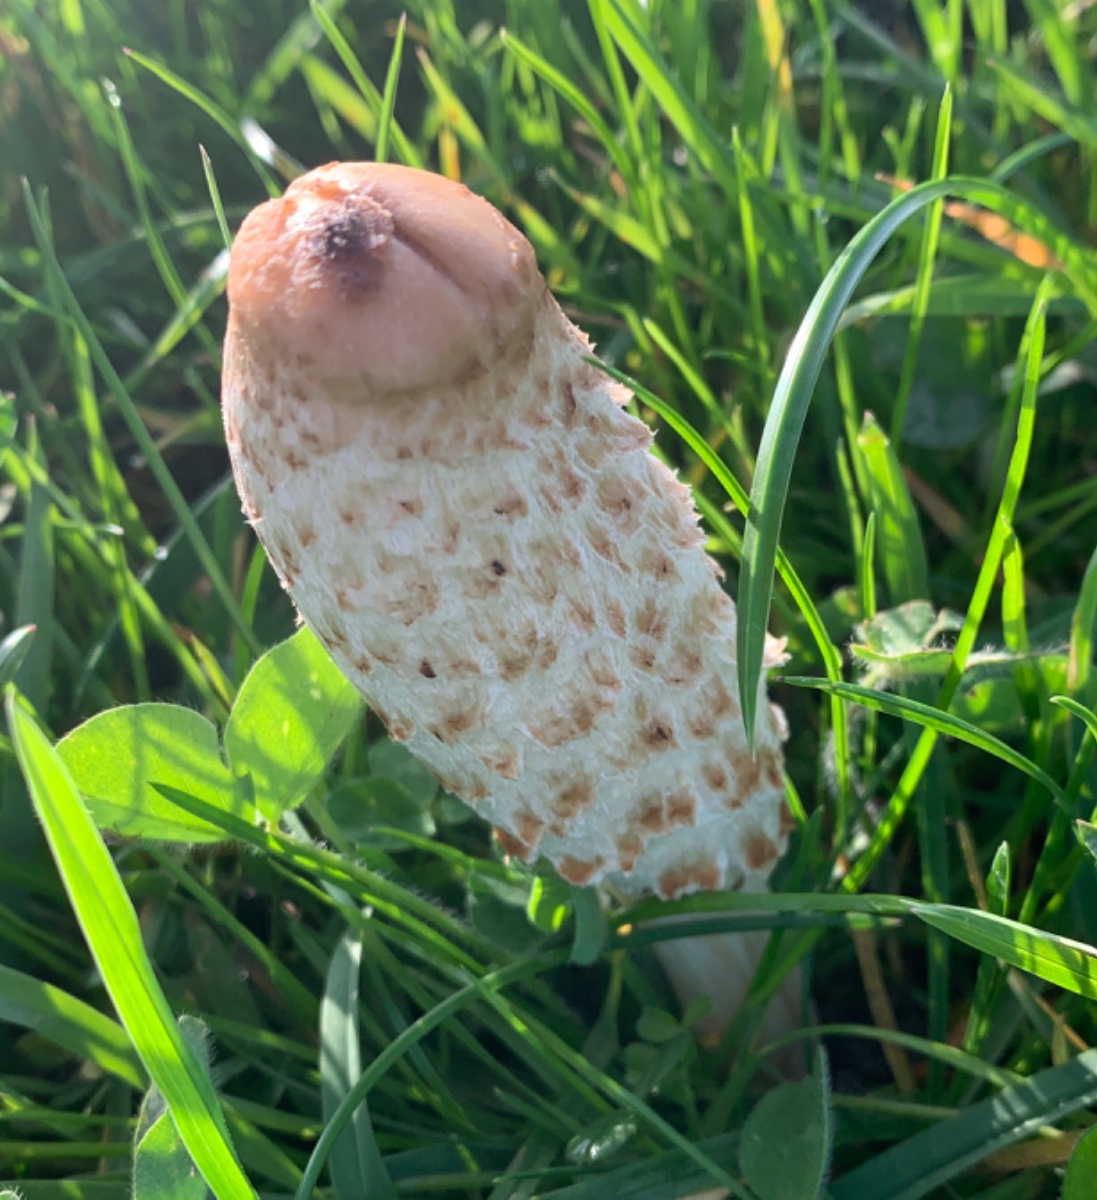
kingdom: Fungi
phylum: Basidiomycota
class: Agaricomycetes
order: Agaricales
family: Agaricaceae
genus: Coprinus
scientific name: Coprinus comatus
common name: stor parykhat
